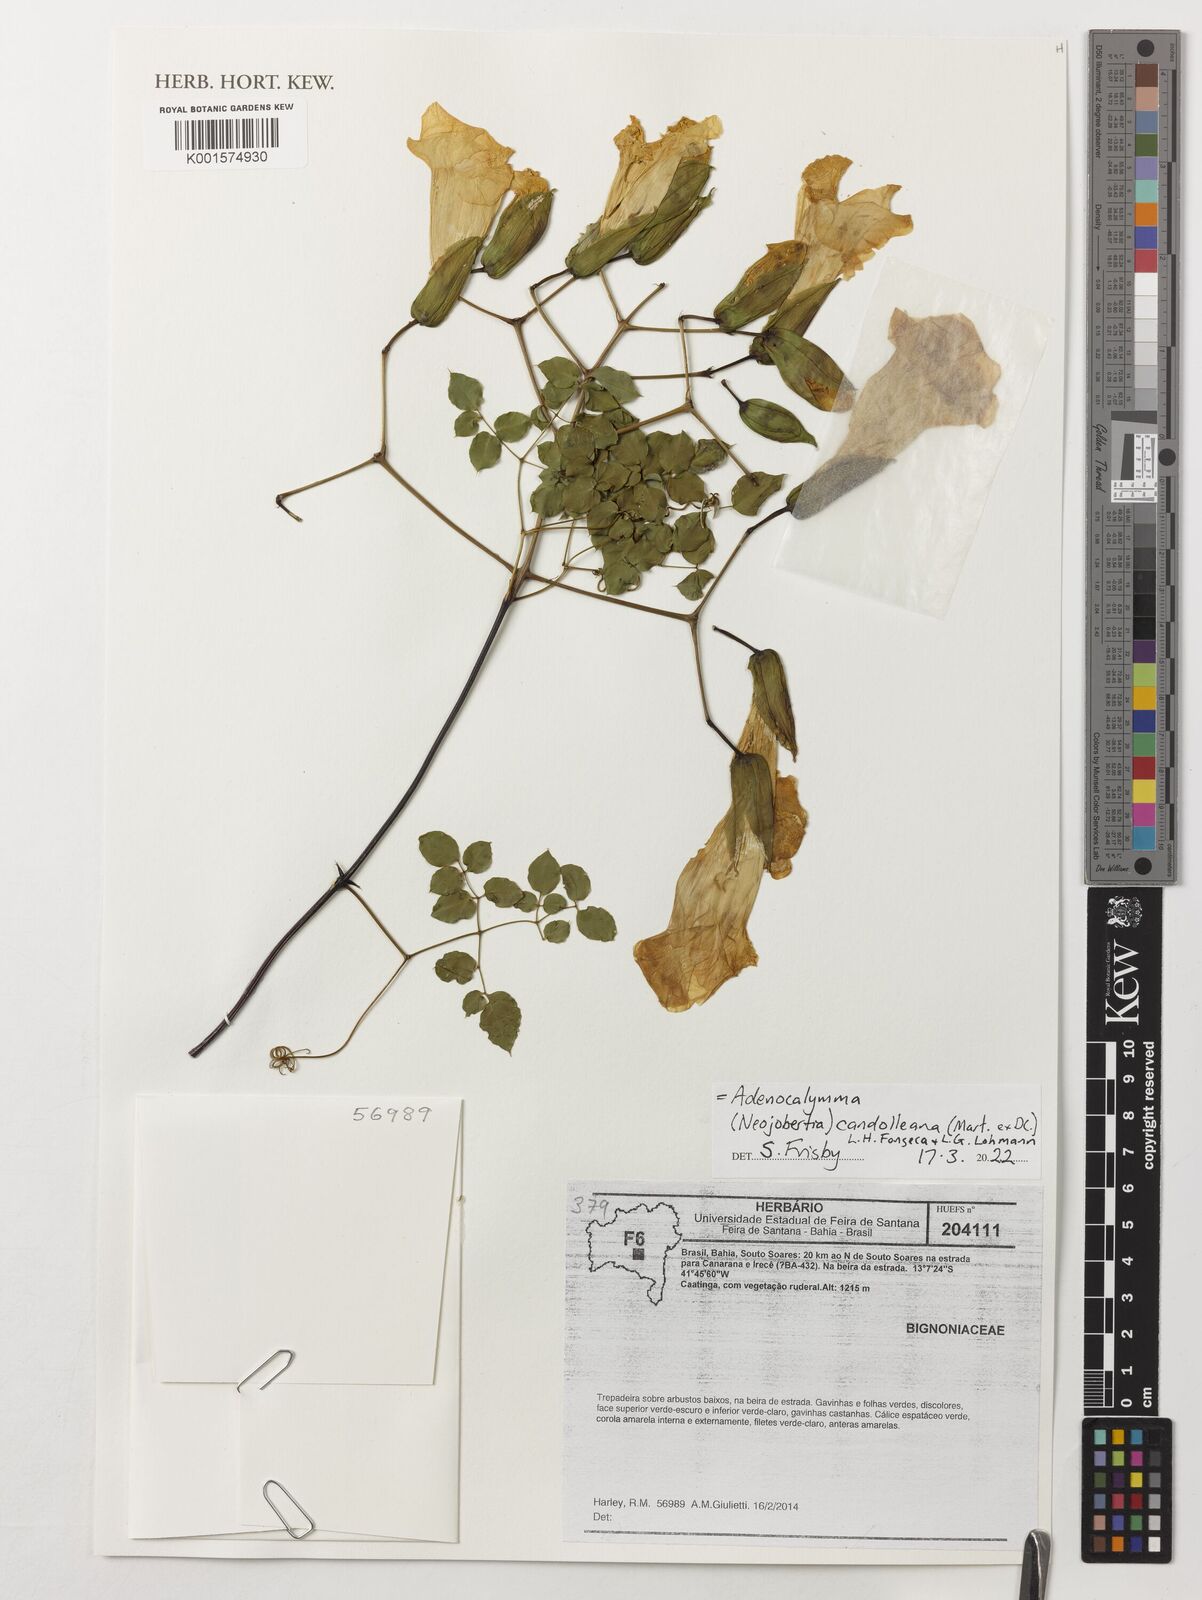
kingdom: Plantae
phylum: Tracheophyta
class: Magnoliopsida
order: Lamiales
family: Bignoniaceae
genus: Adenocalymma
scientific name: Adenocalymma
